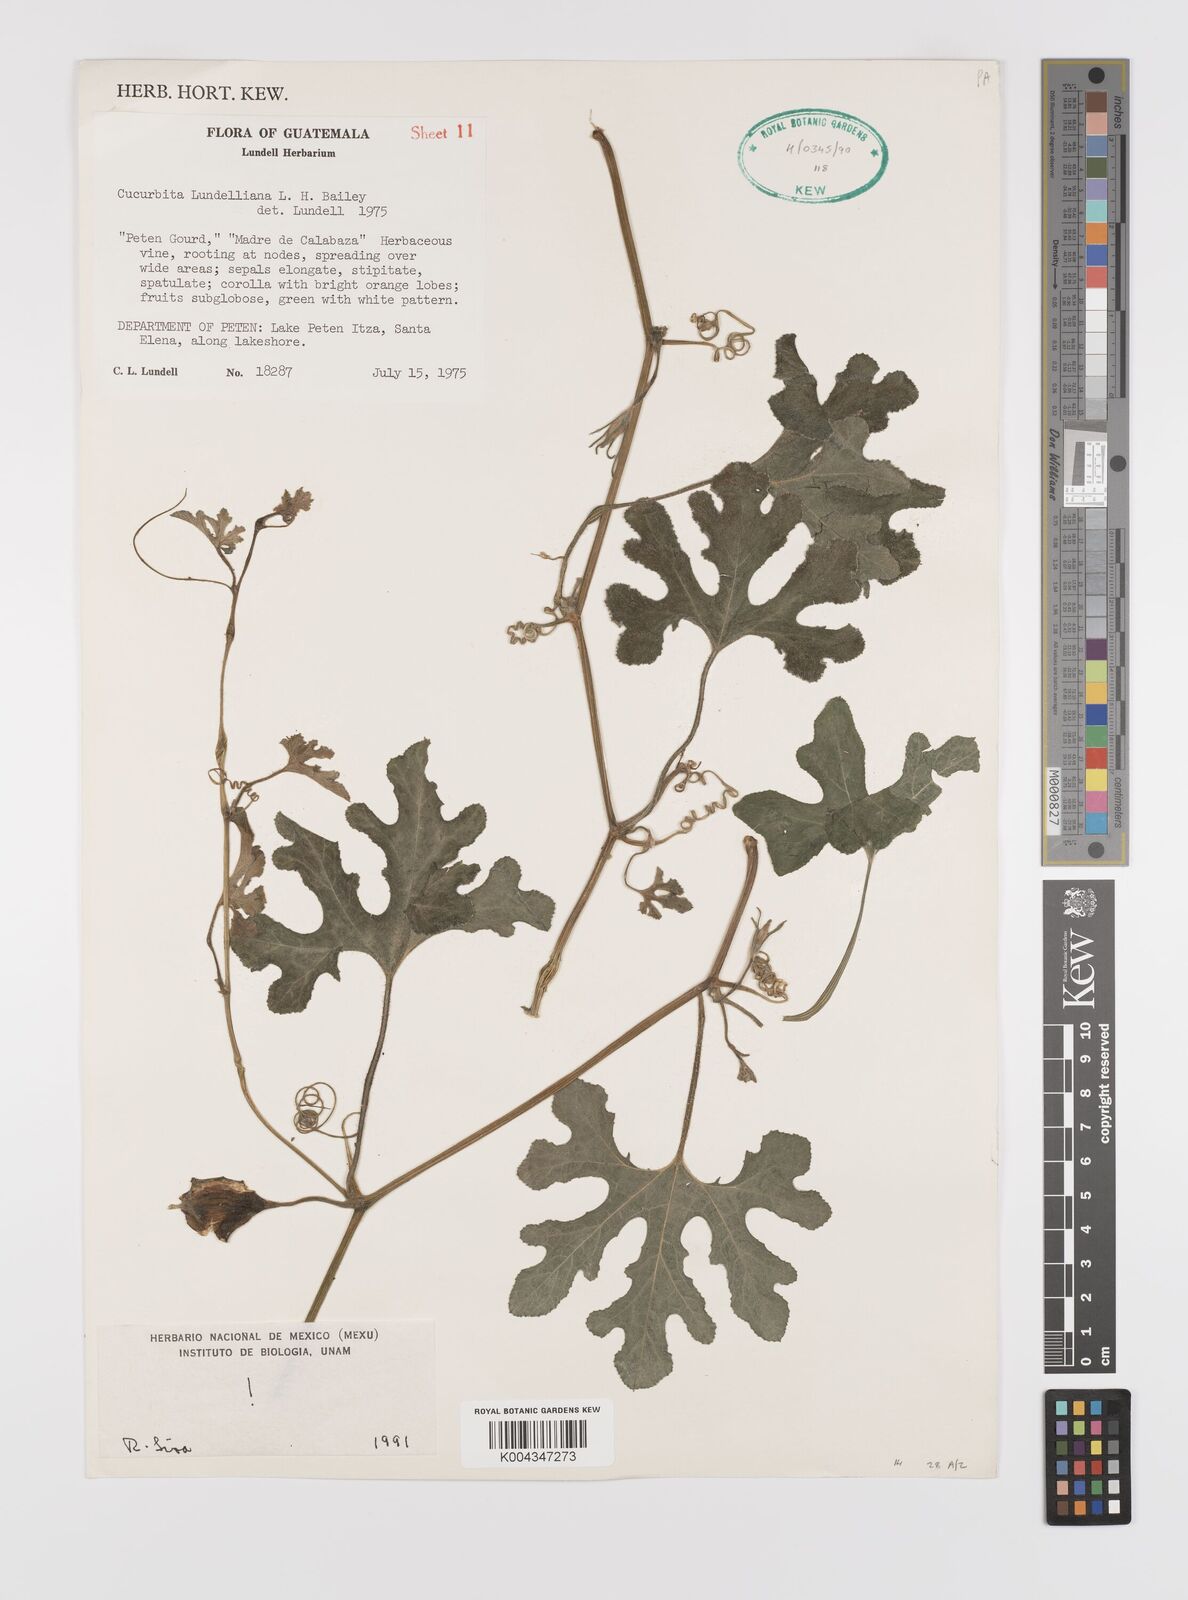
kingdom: Plantae
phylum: Tracheophyta
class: Magnoliopsida
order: Cucurbitales
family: Cucurbitaceae
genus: Cucurbita
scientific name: Cucurbita lundelliana
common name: Bitter pumpkin
